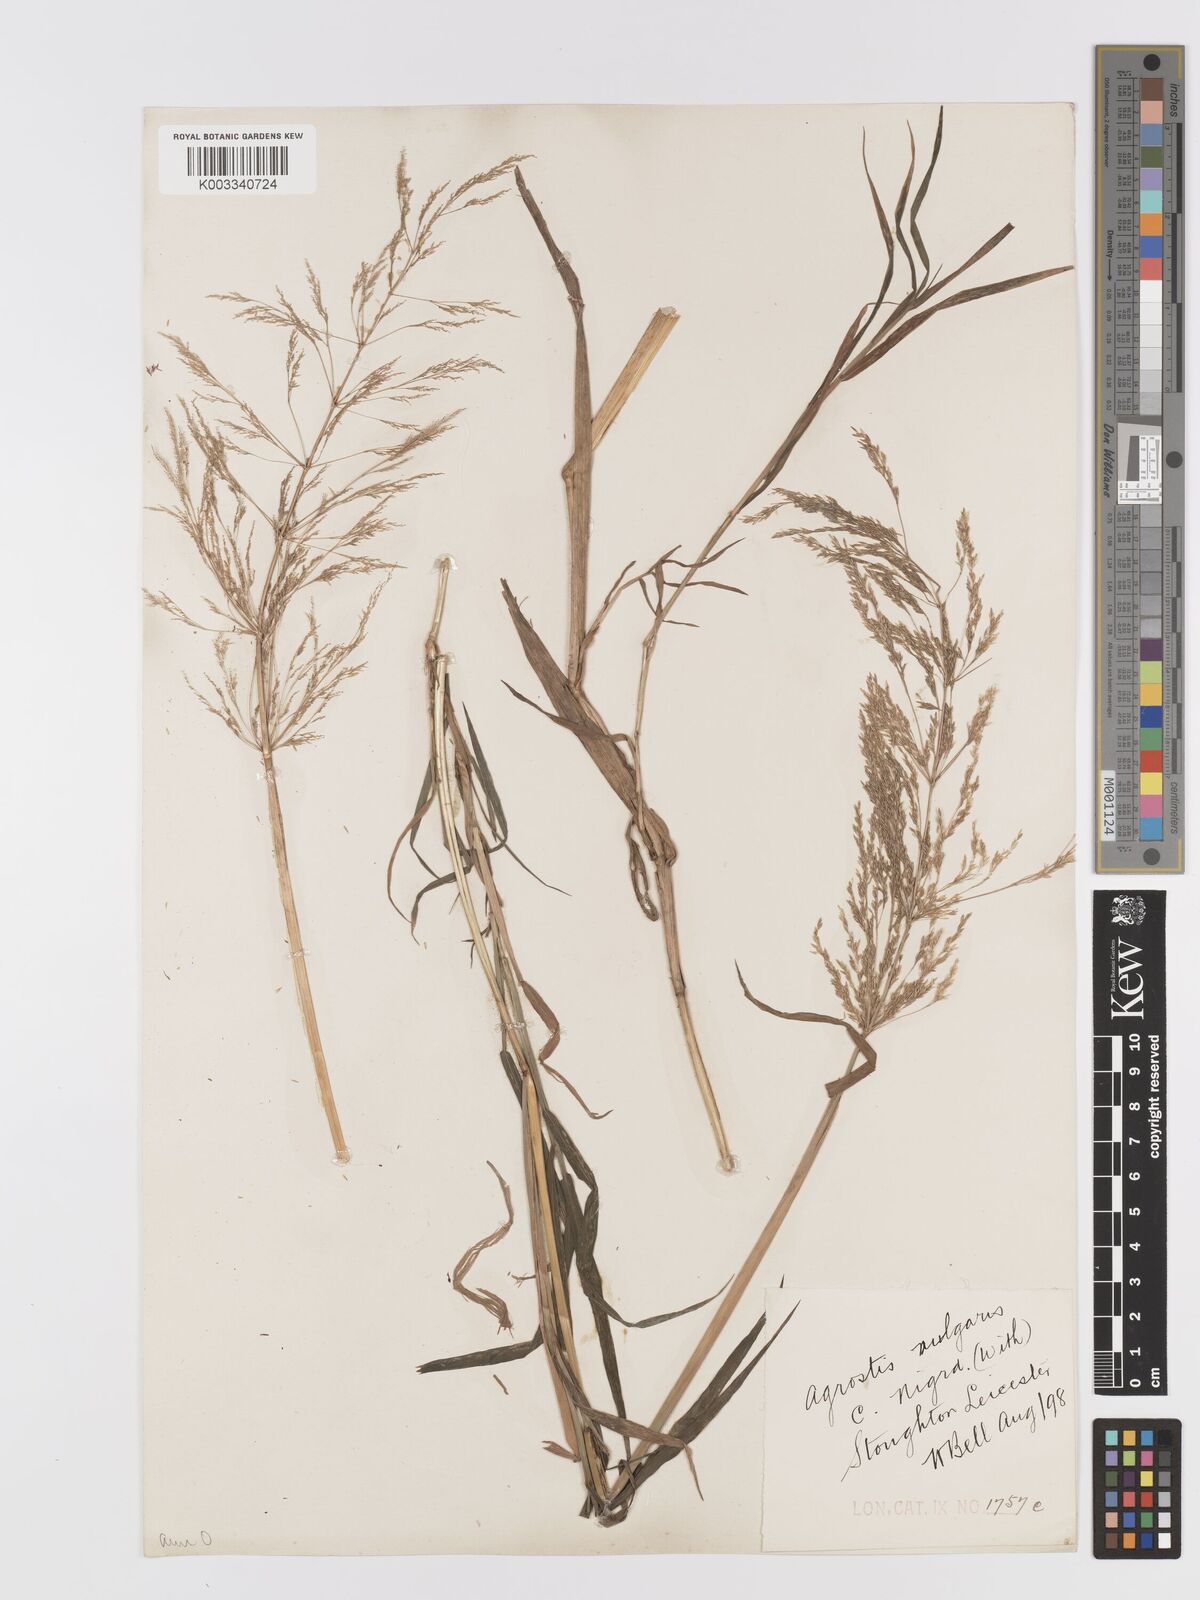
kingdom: Plantae
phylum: Tracheophyta
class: Liliopsida
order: Poales
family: Poaceae
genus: Agrostis
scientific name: Agrostis capillaris
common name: Colonial bentgrass
